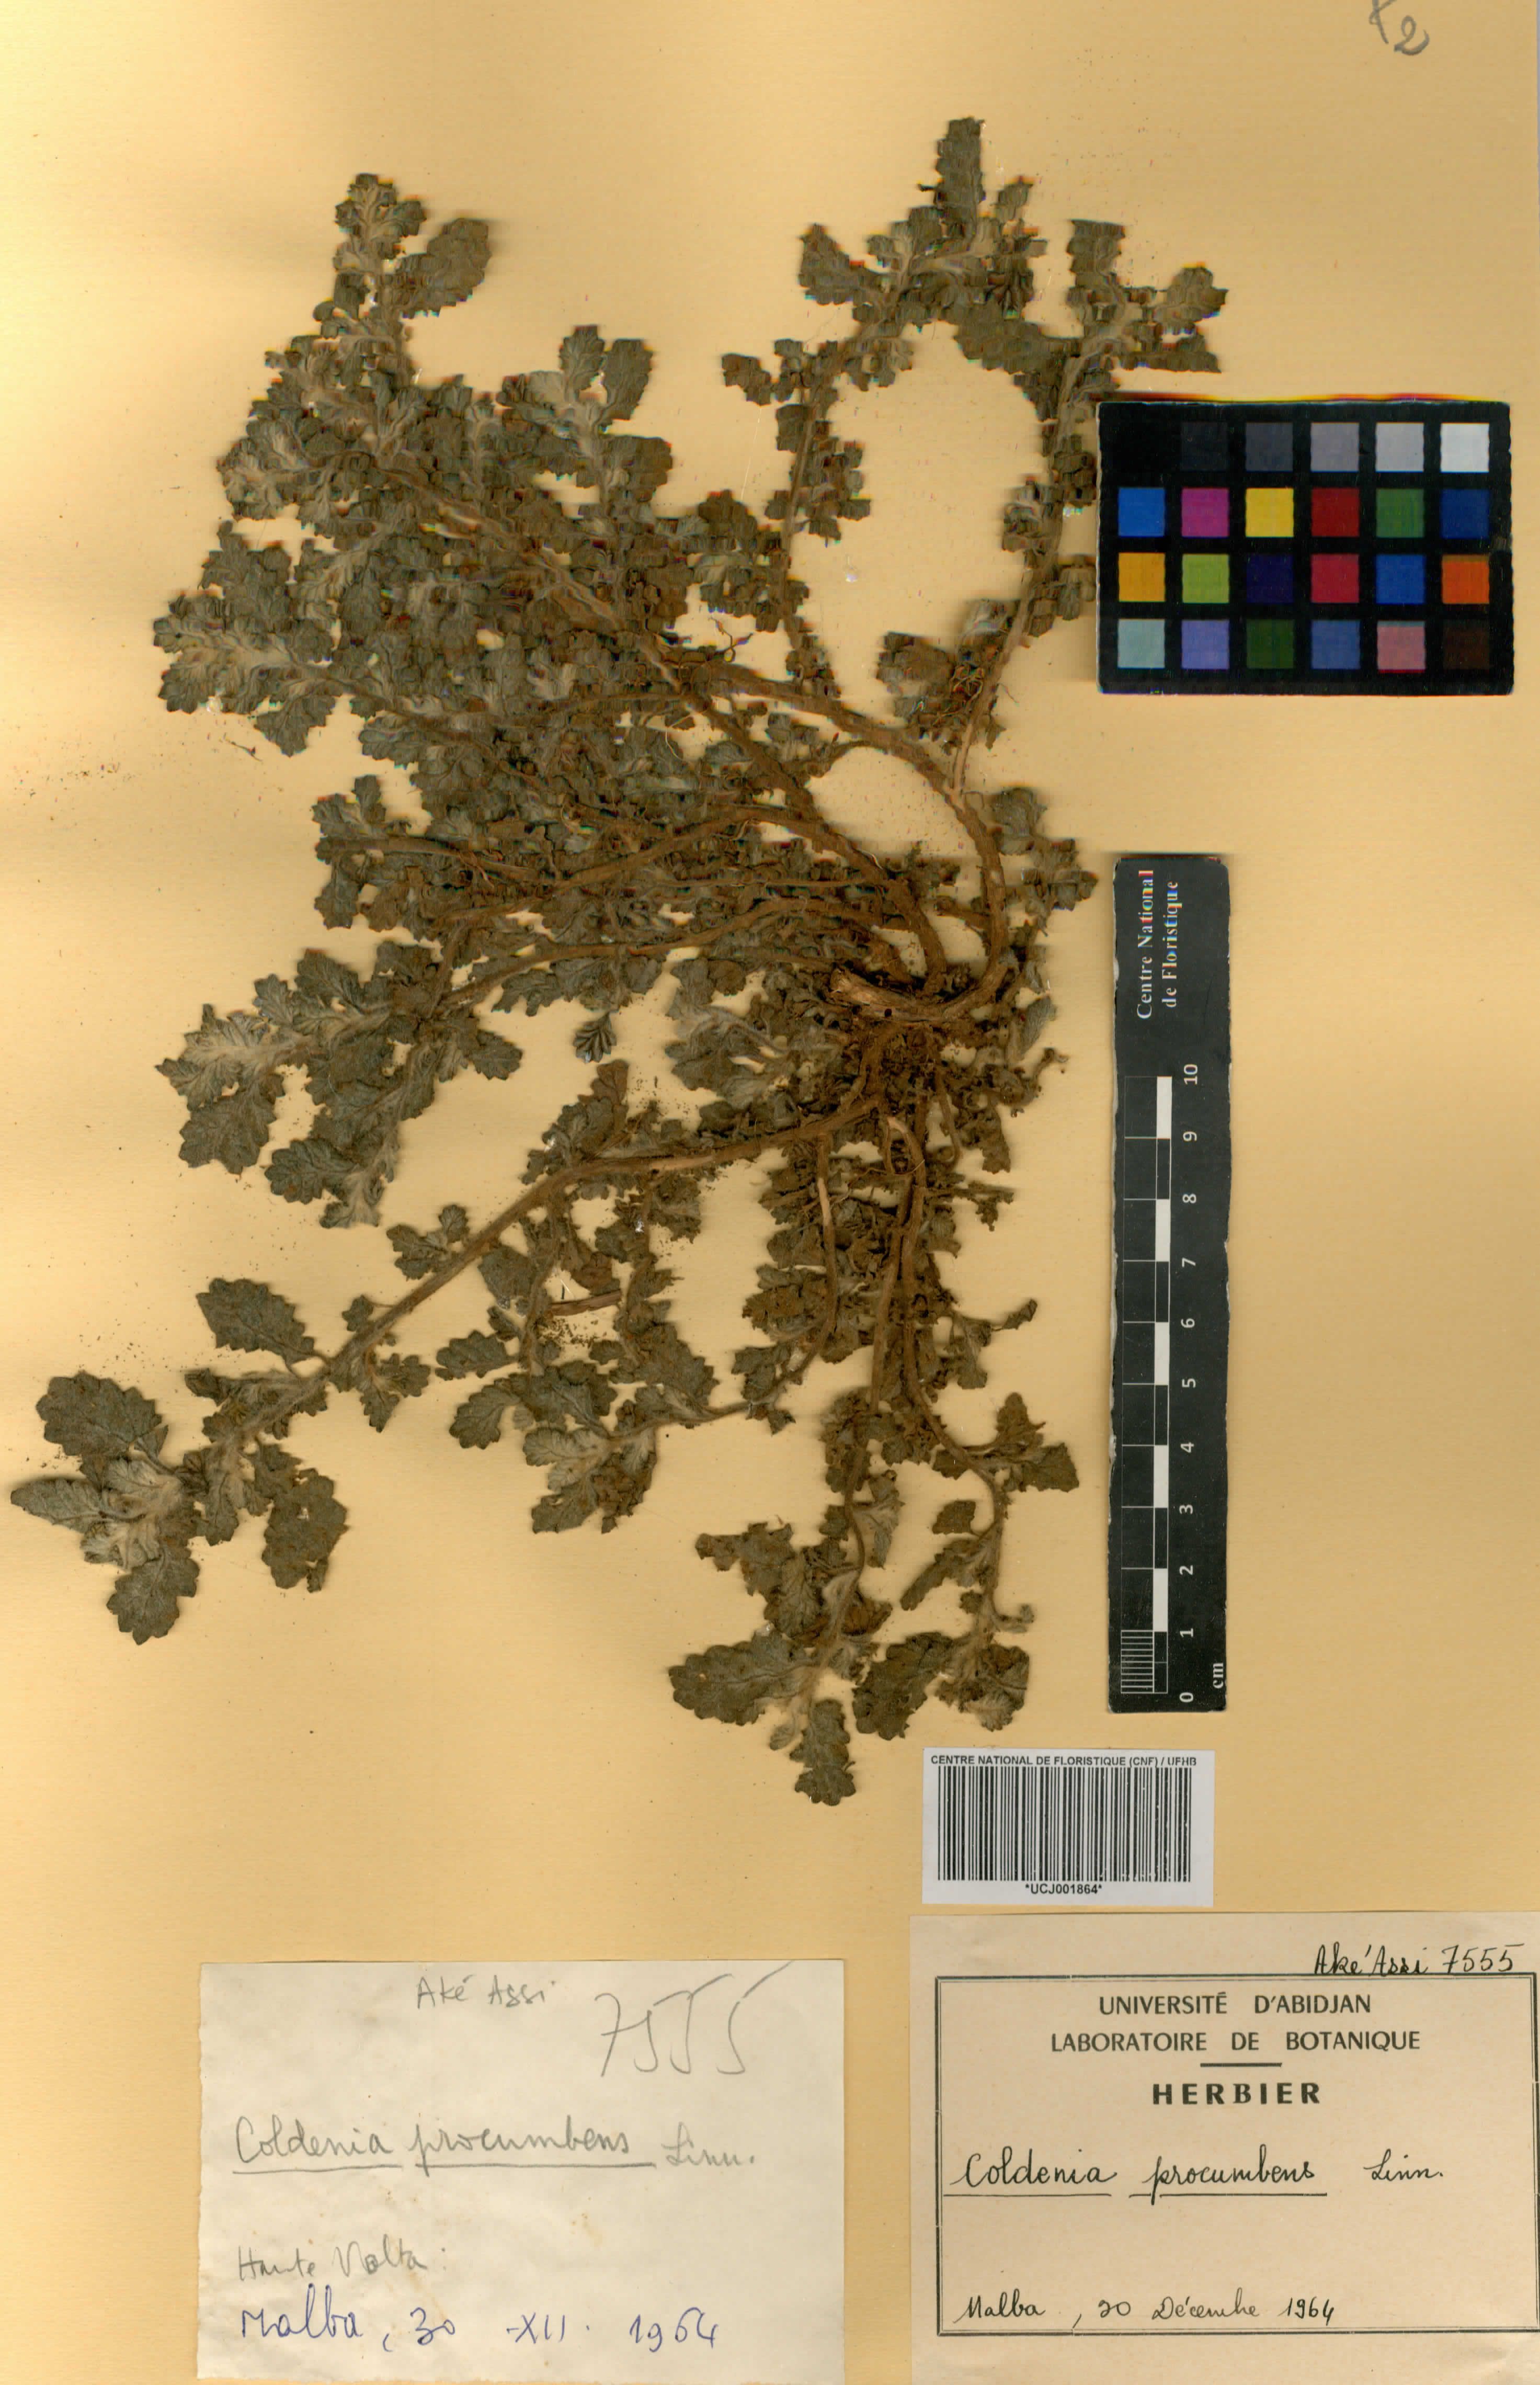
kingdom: Plantae
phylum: Tracheophyta
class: Magnoliopsida
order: Boraginales
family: Coldeniaceae
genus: Coldenia
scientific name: Coldenia procumbens
